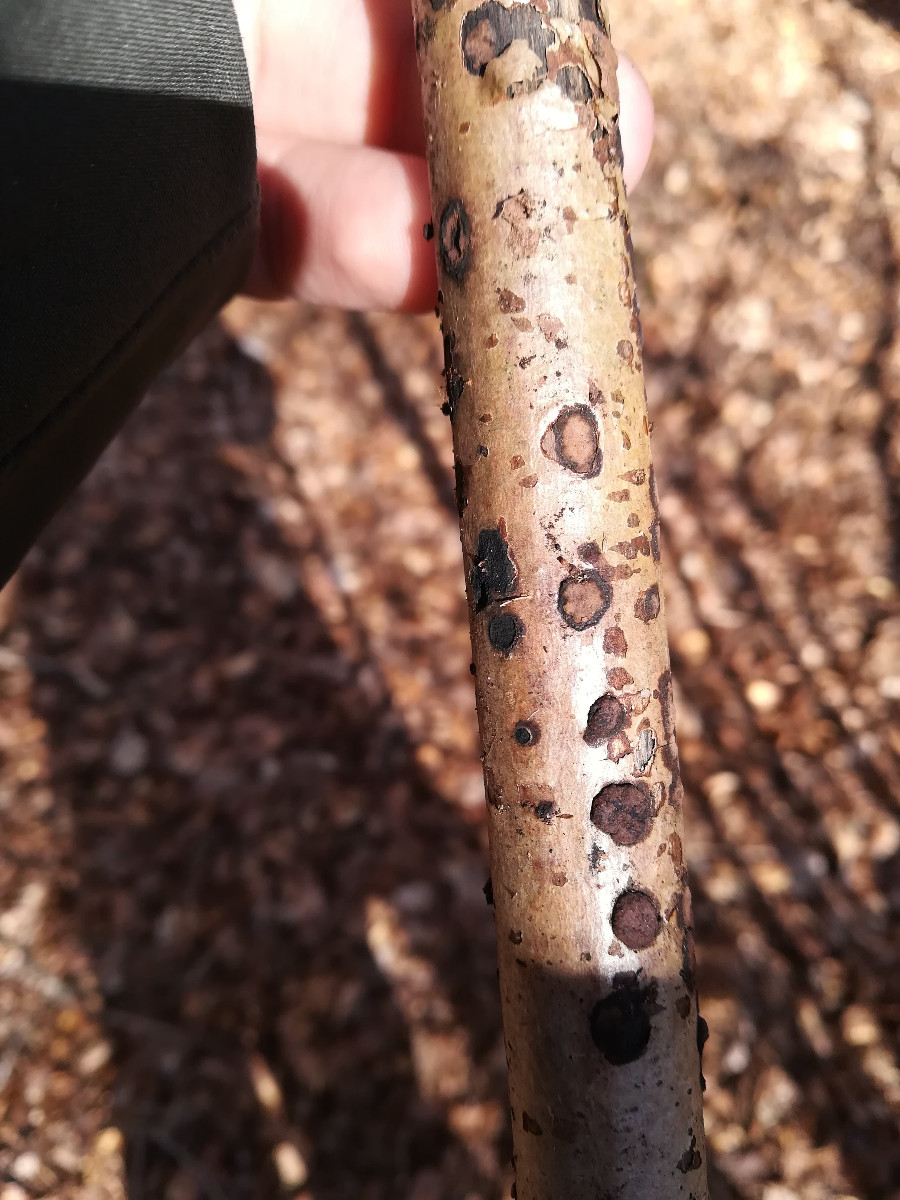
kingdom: Fungi
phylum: Ascomycota
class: Sordariomycetes
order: Xylariales
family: Hypoxylaceae
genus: Hypoxylon
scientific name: Hypoxylon fuscum
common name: kegleformet kulbær
